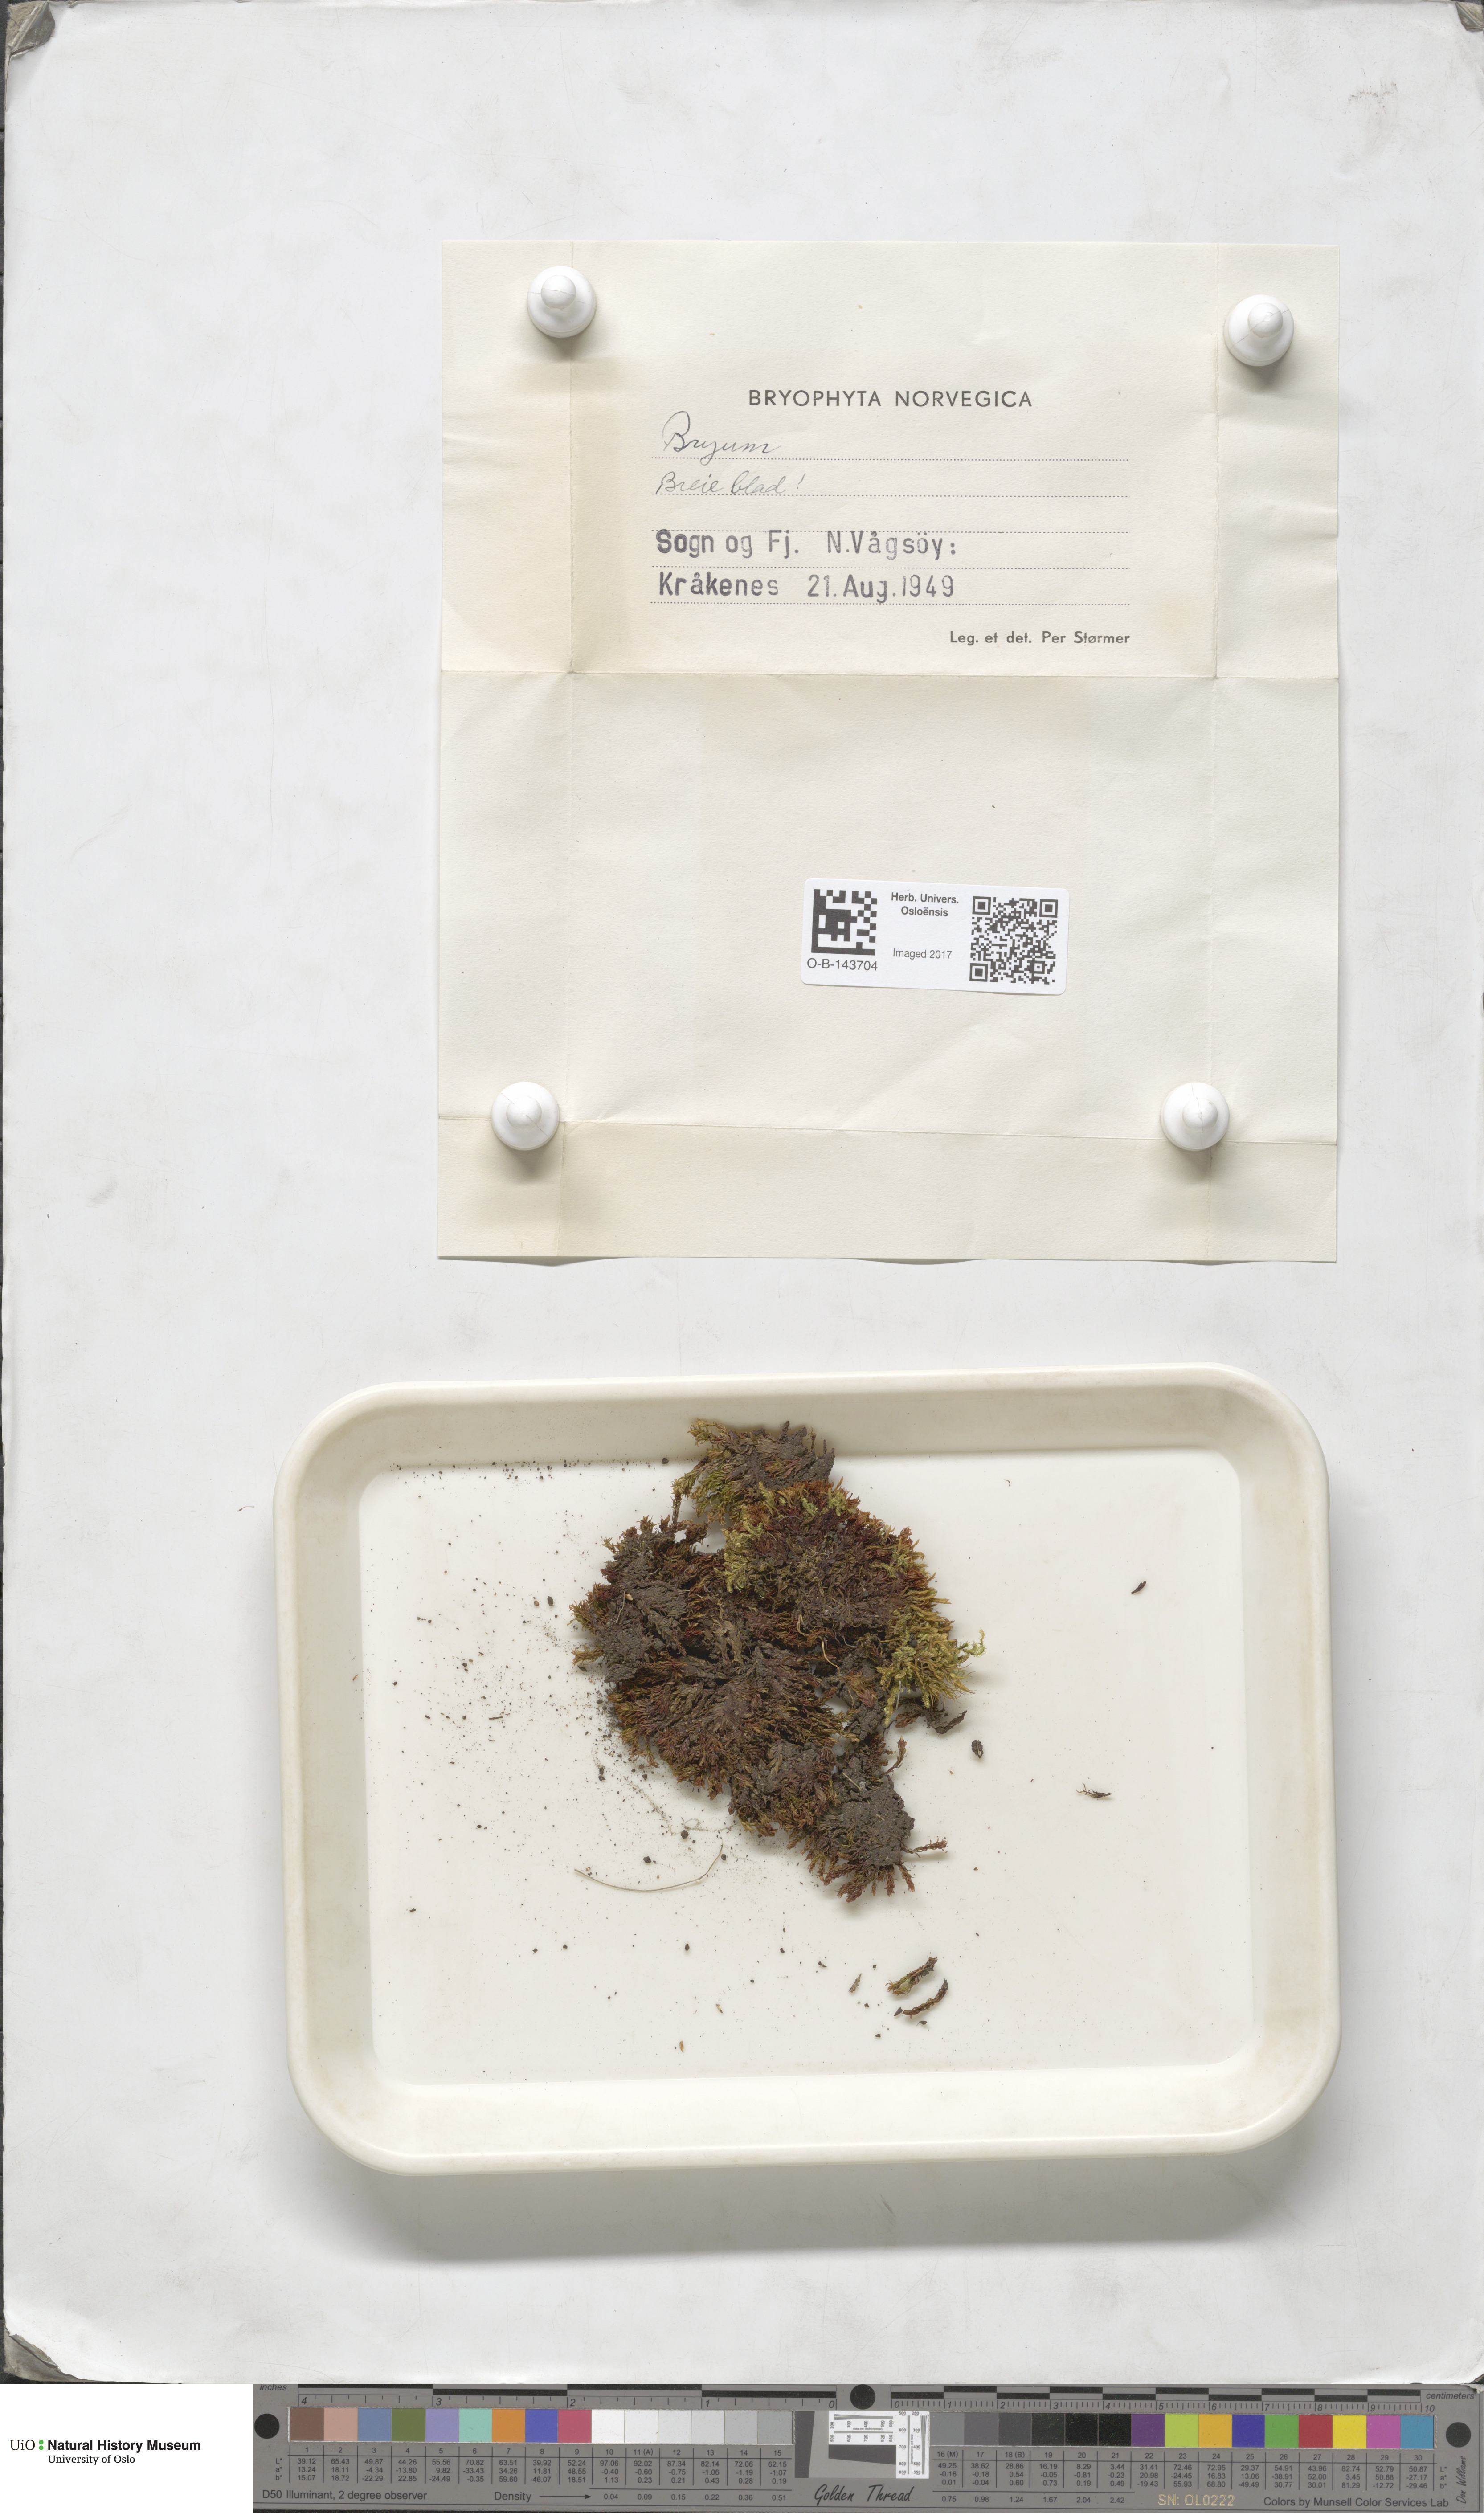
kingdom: Plantae
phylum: Bryophyta
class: Bryopsida
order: Bryales
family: Bryaceae
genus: Bryum
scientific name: Bryum
